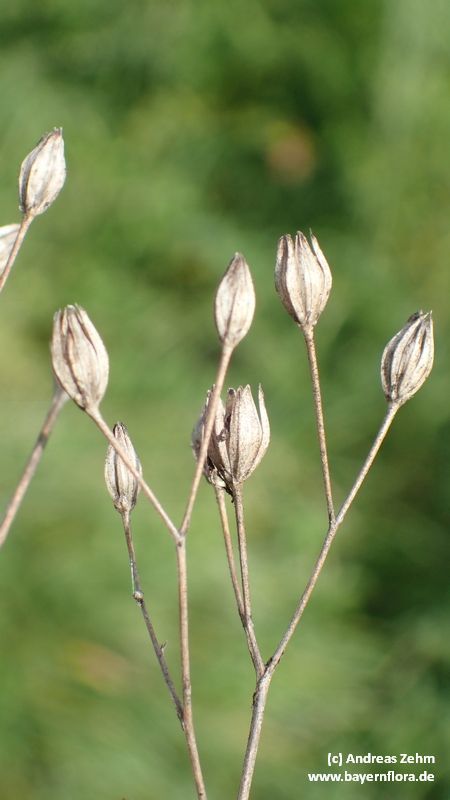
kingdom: Plantae
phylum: Tracheophyta
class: Magnoliopsida
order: Asterales
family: Asteraceae
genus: Lapsana
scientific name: Lapsana communis
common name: Nipplewort
